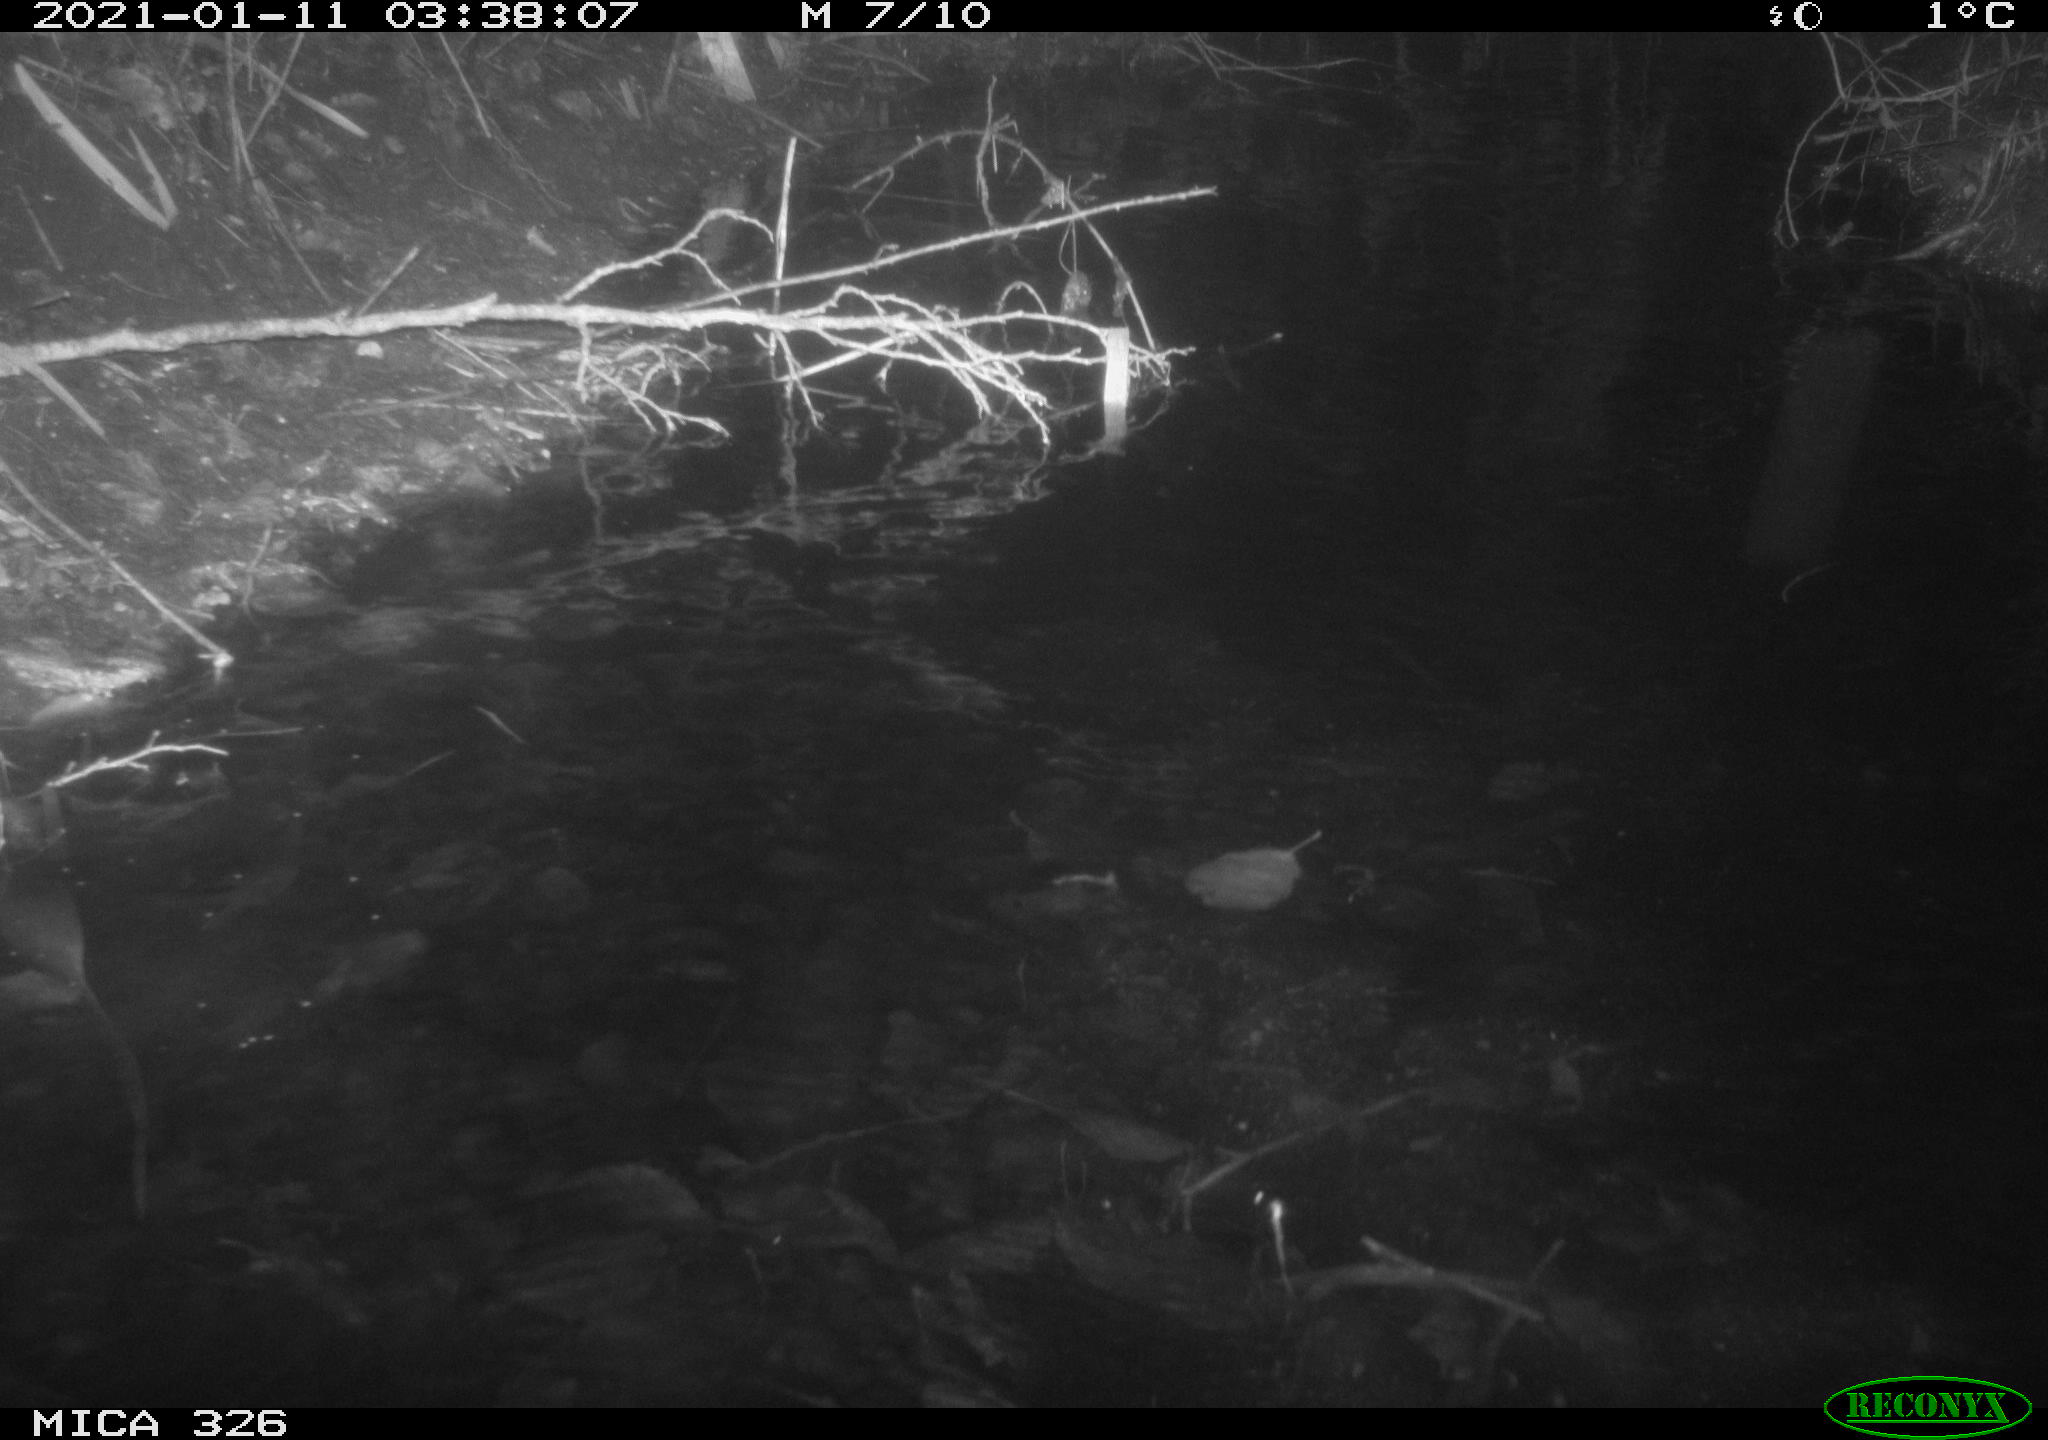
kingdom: Animalia
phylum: Chordata
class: Mammalia
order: Rodentia
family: Myocastoridae
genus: Myocastor
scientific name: Myocastor coypus
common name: Coypu
